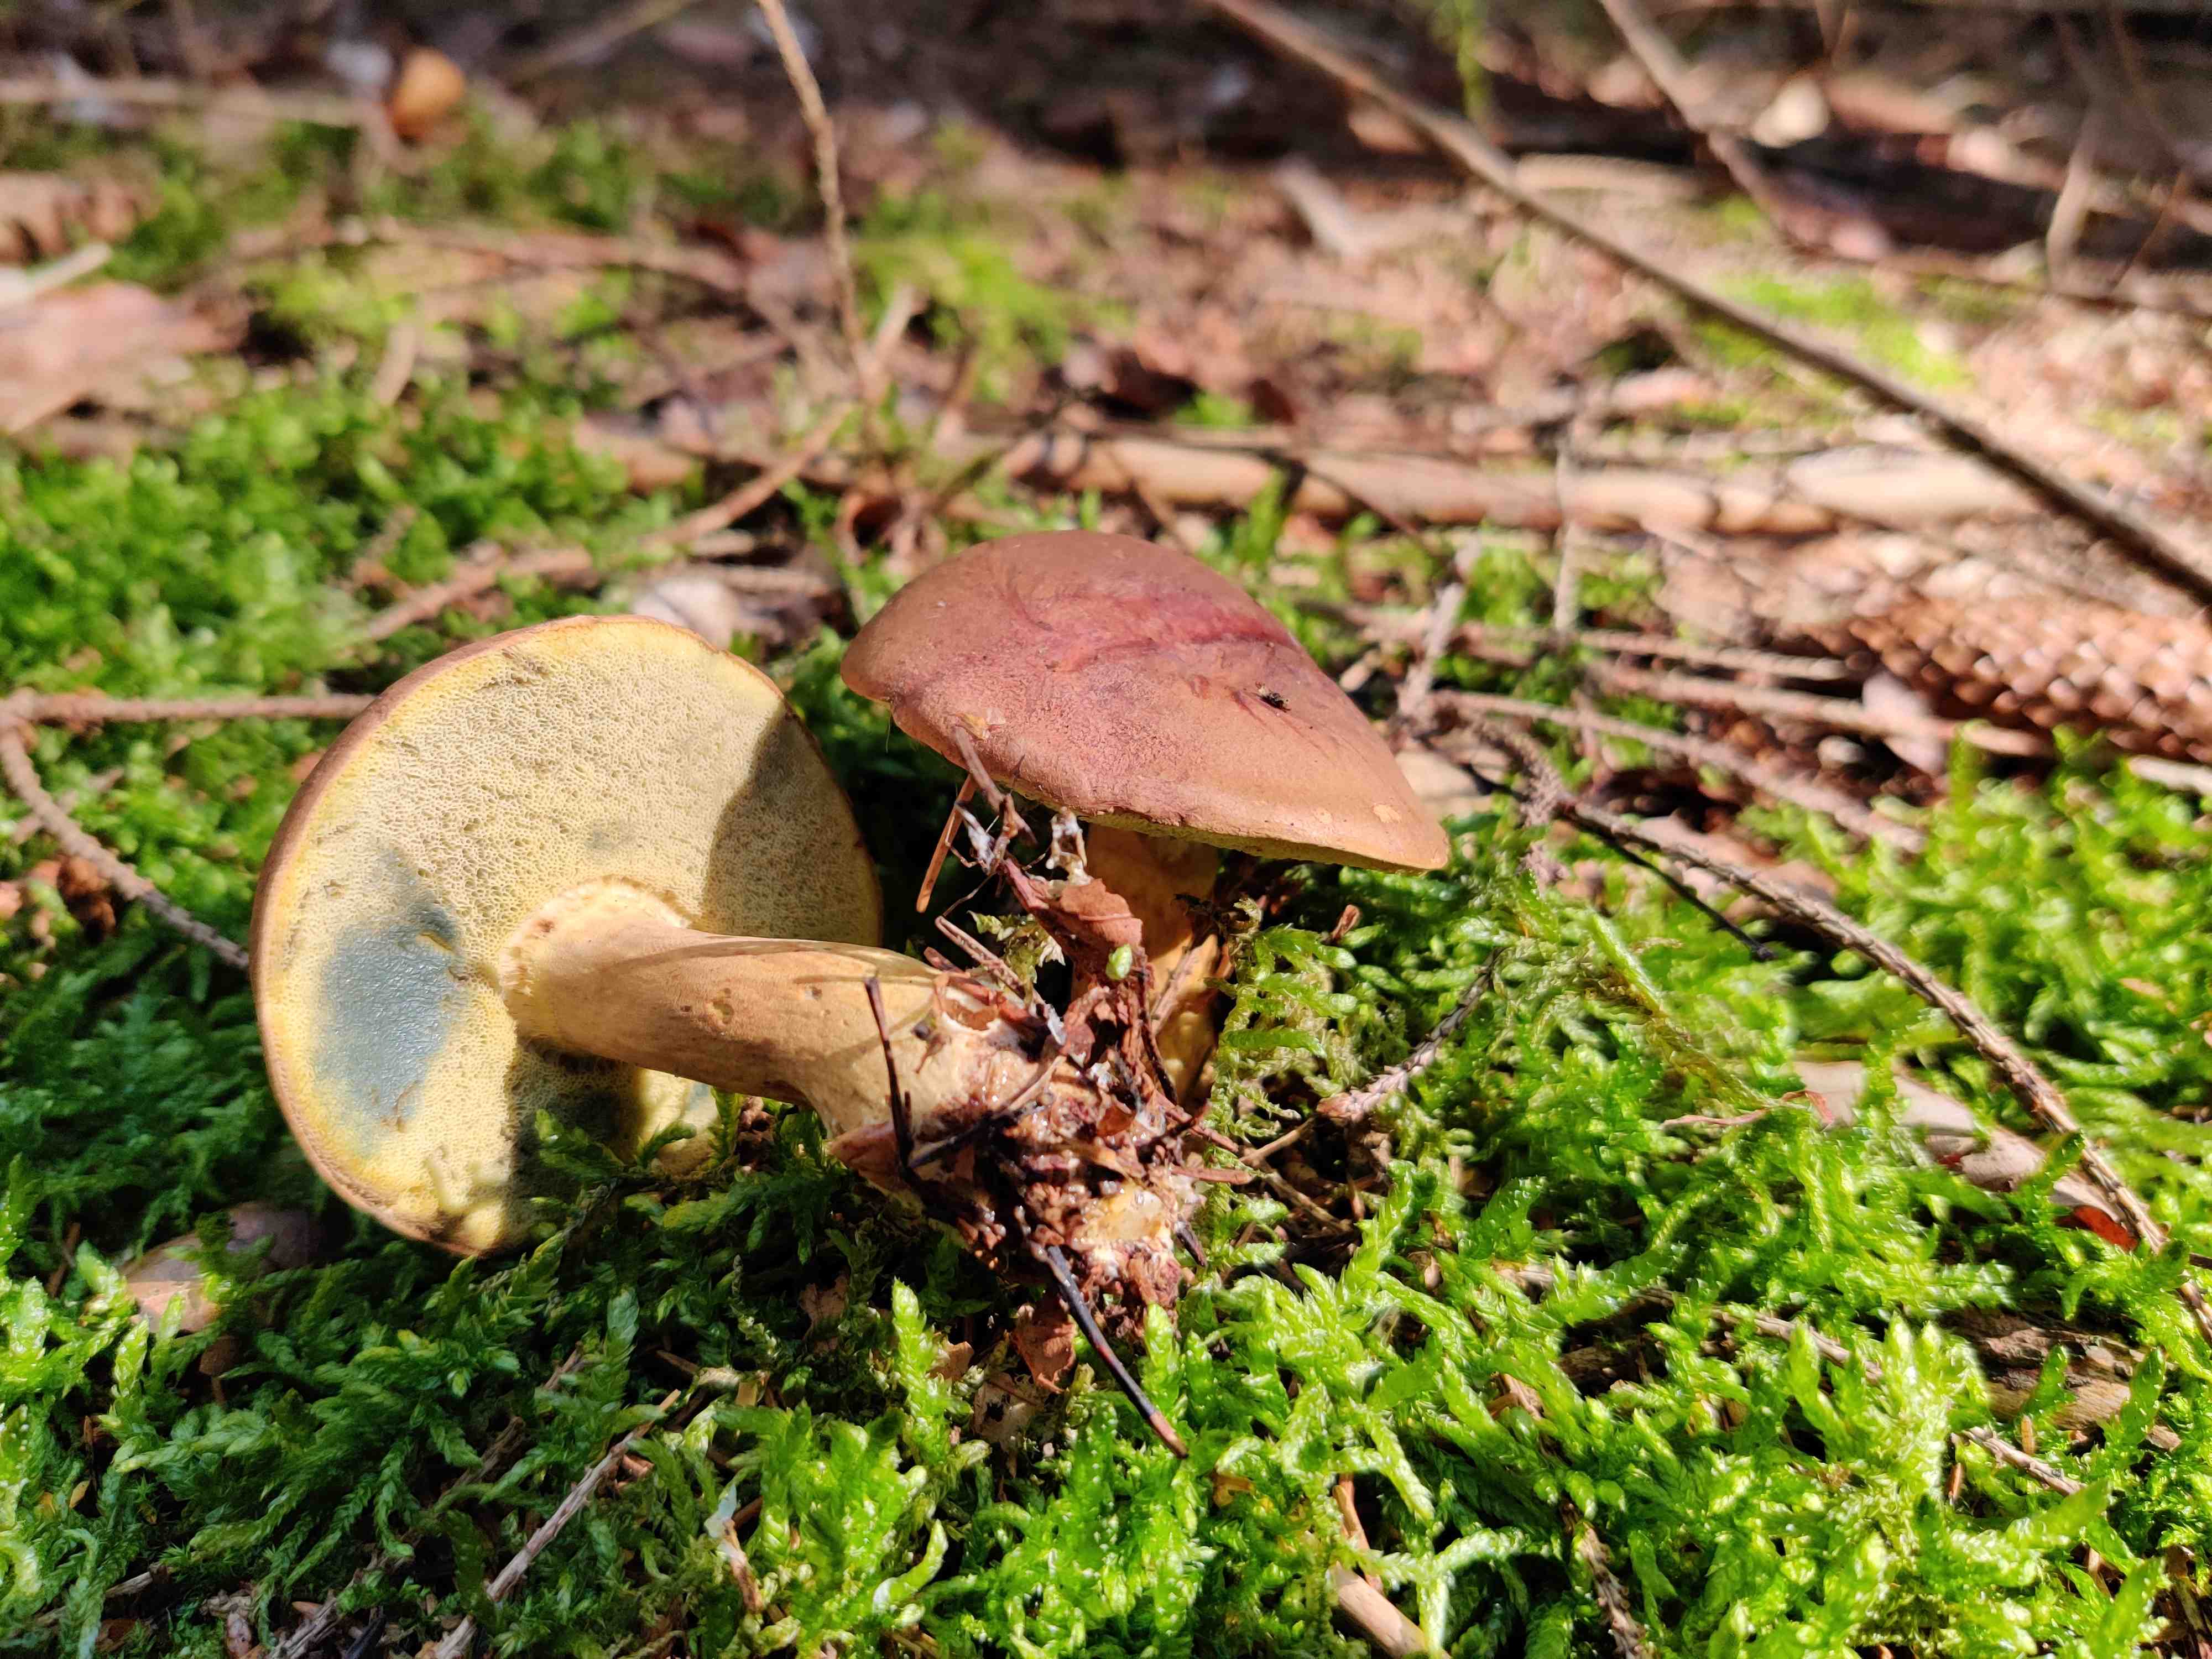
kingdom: Fungi
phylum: Basidiomycota
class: Agaricomycetes
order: Boletales
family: Boletaceae
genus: Imleria
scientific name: Imleria badia
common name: brunstokket rørhat
